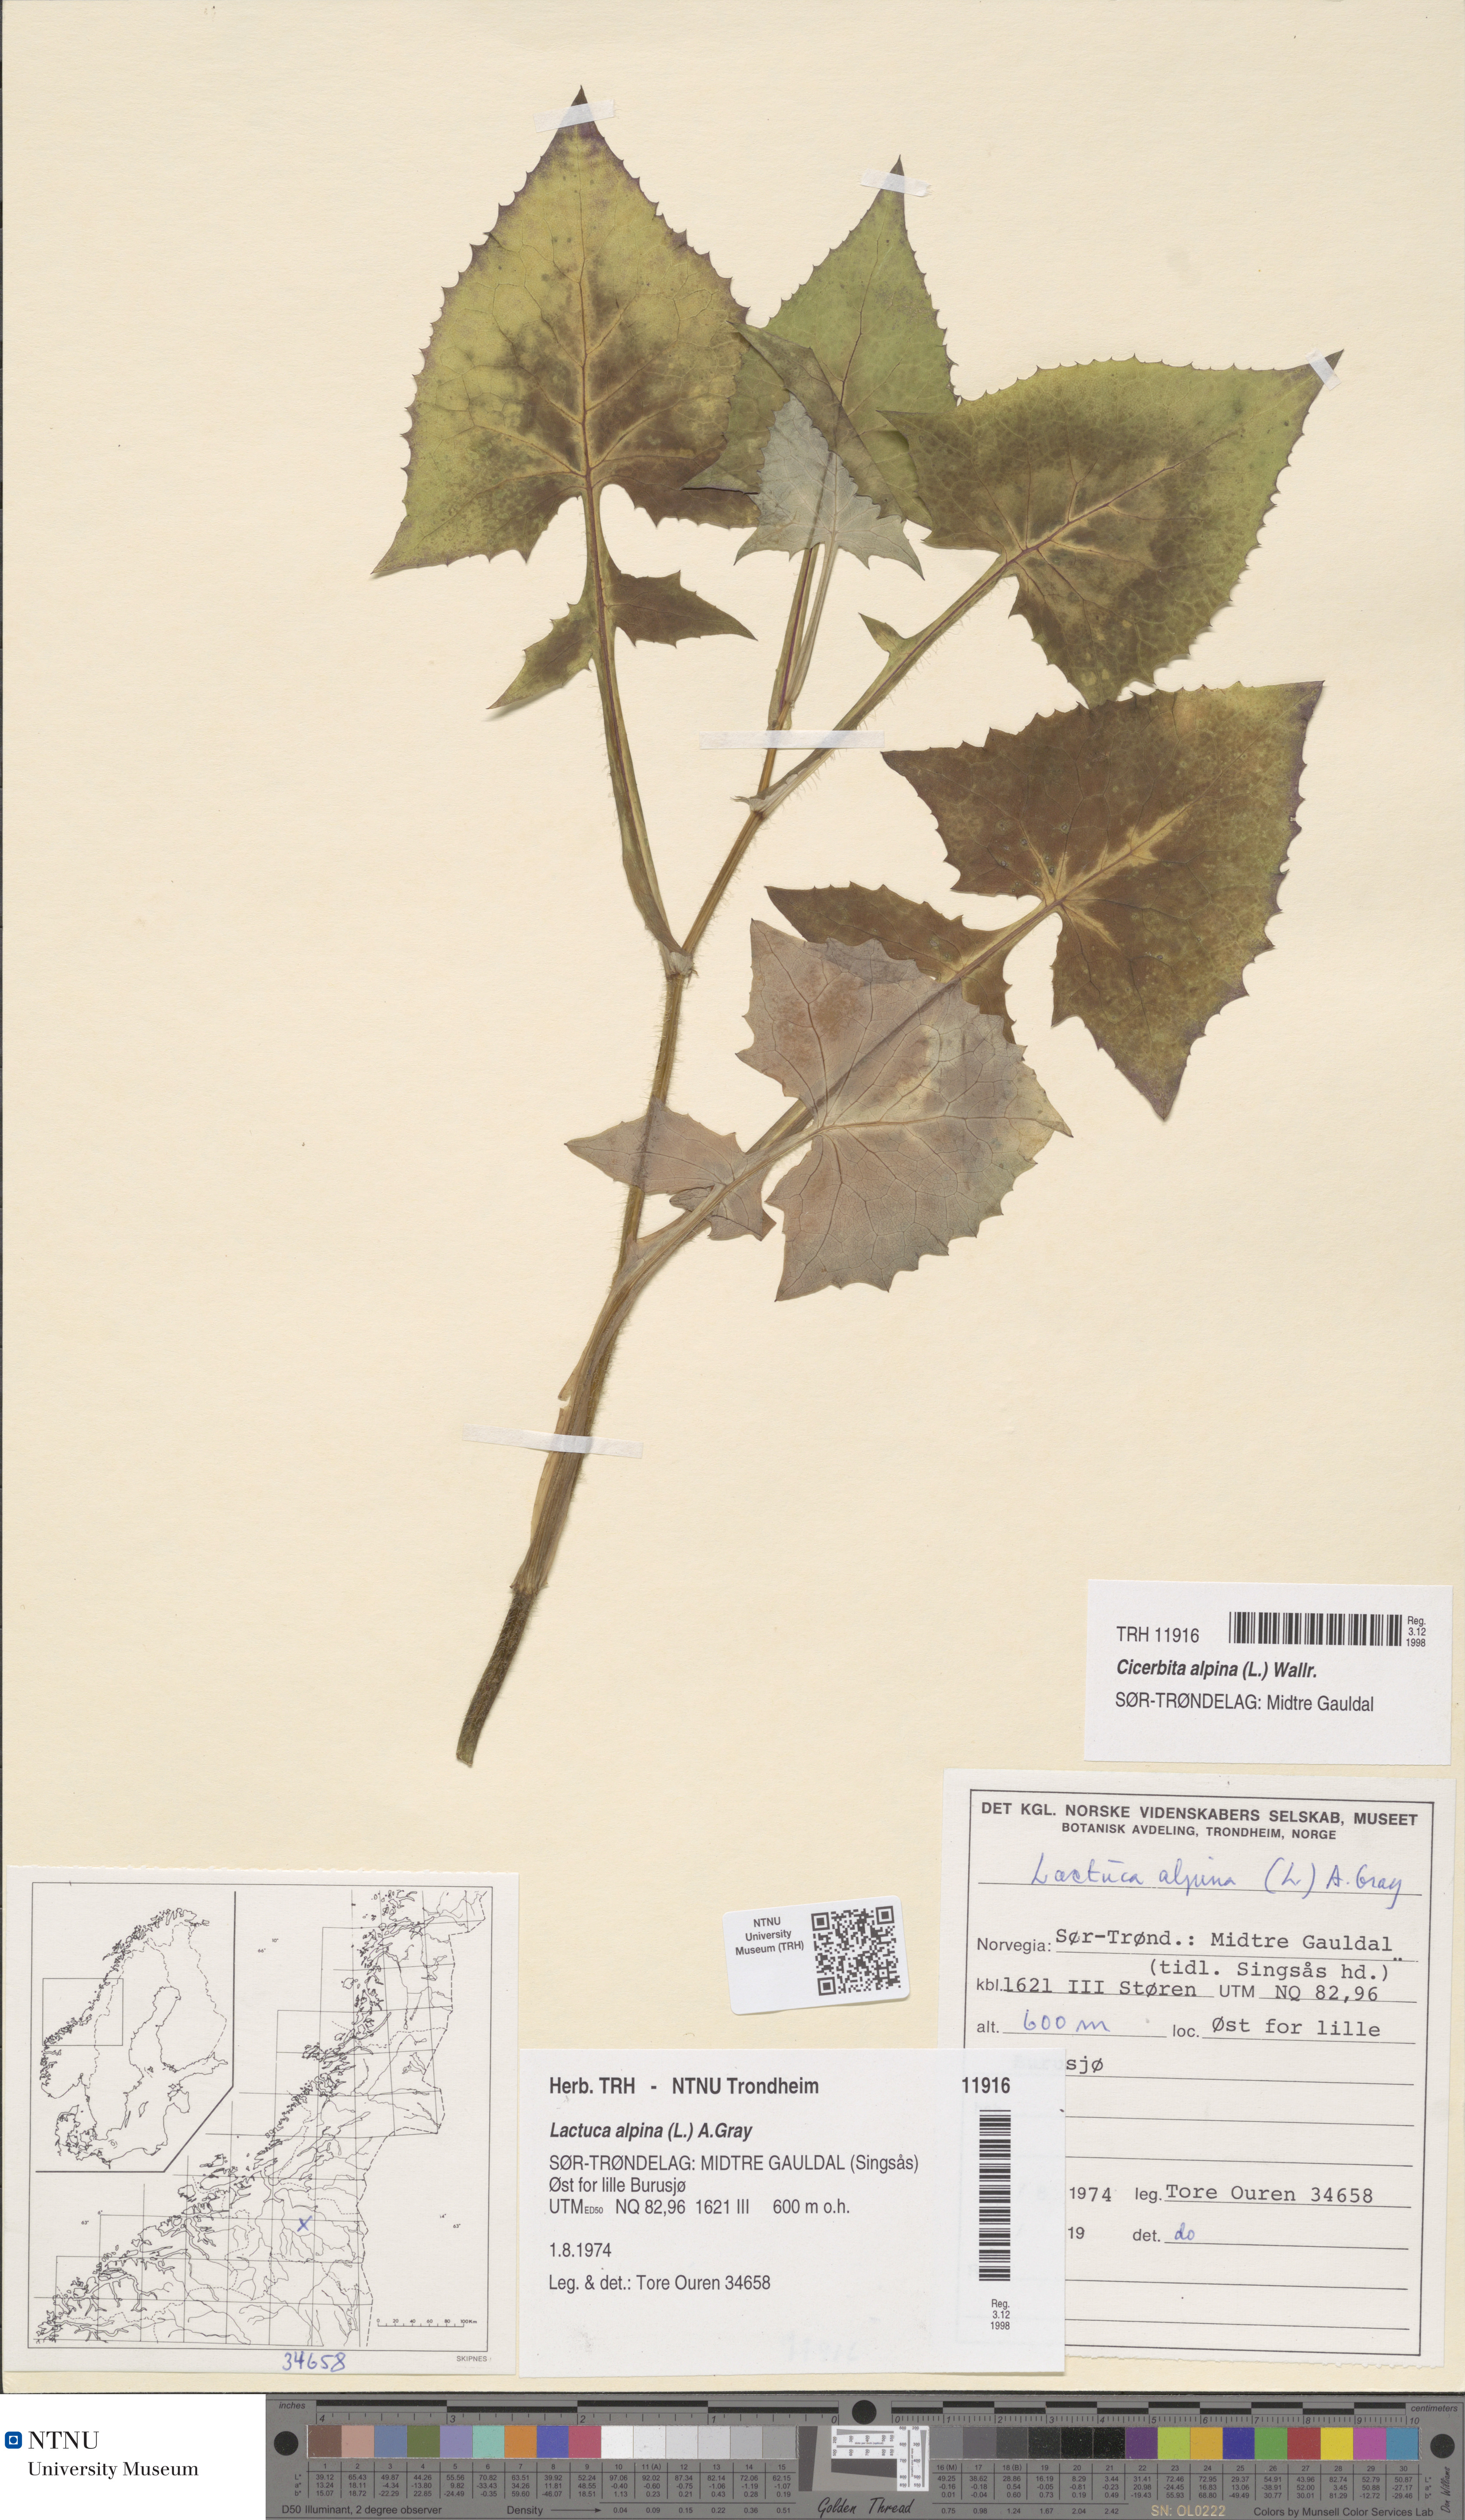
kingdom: Plantae
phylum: Tracheophyta
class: Magnoliopsida
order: Asterales
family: Asteraceae
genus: Cicerbita
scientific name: Cicerbita alpina
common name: Alpine blue-sow-thistle
